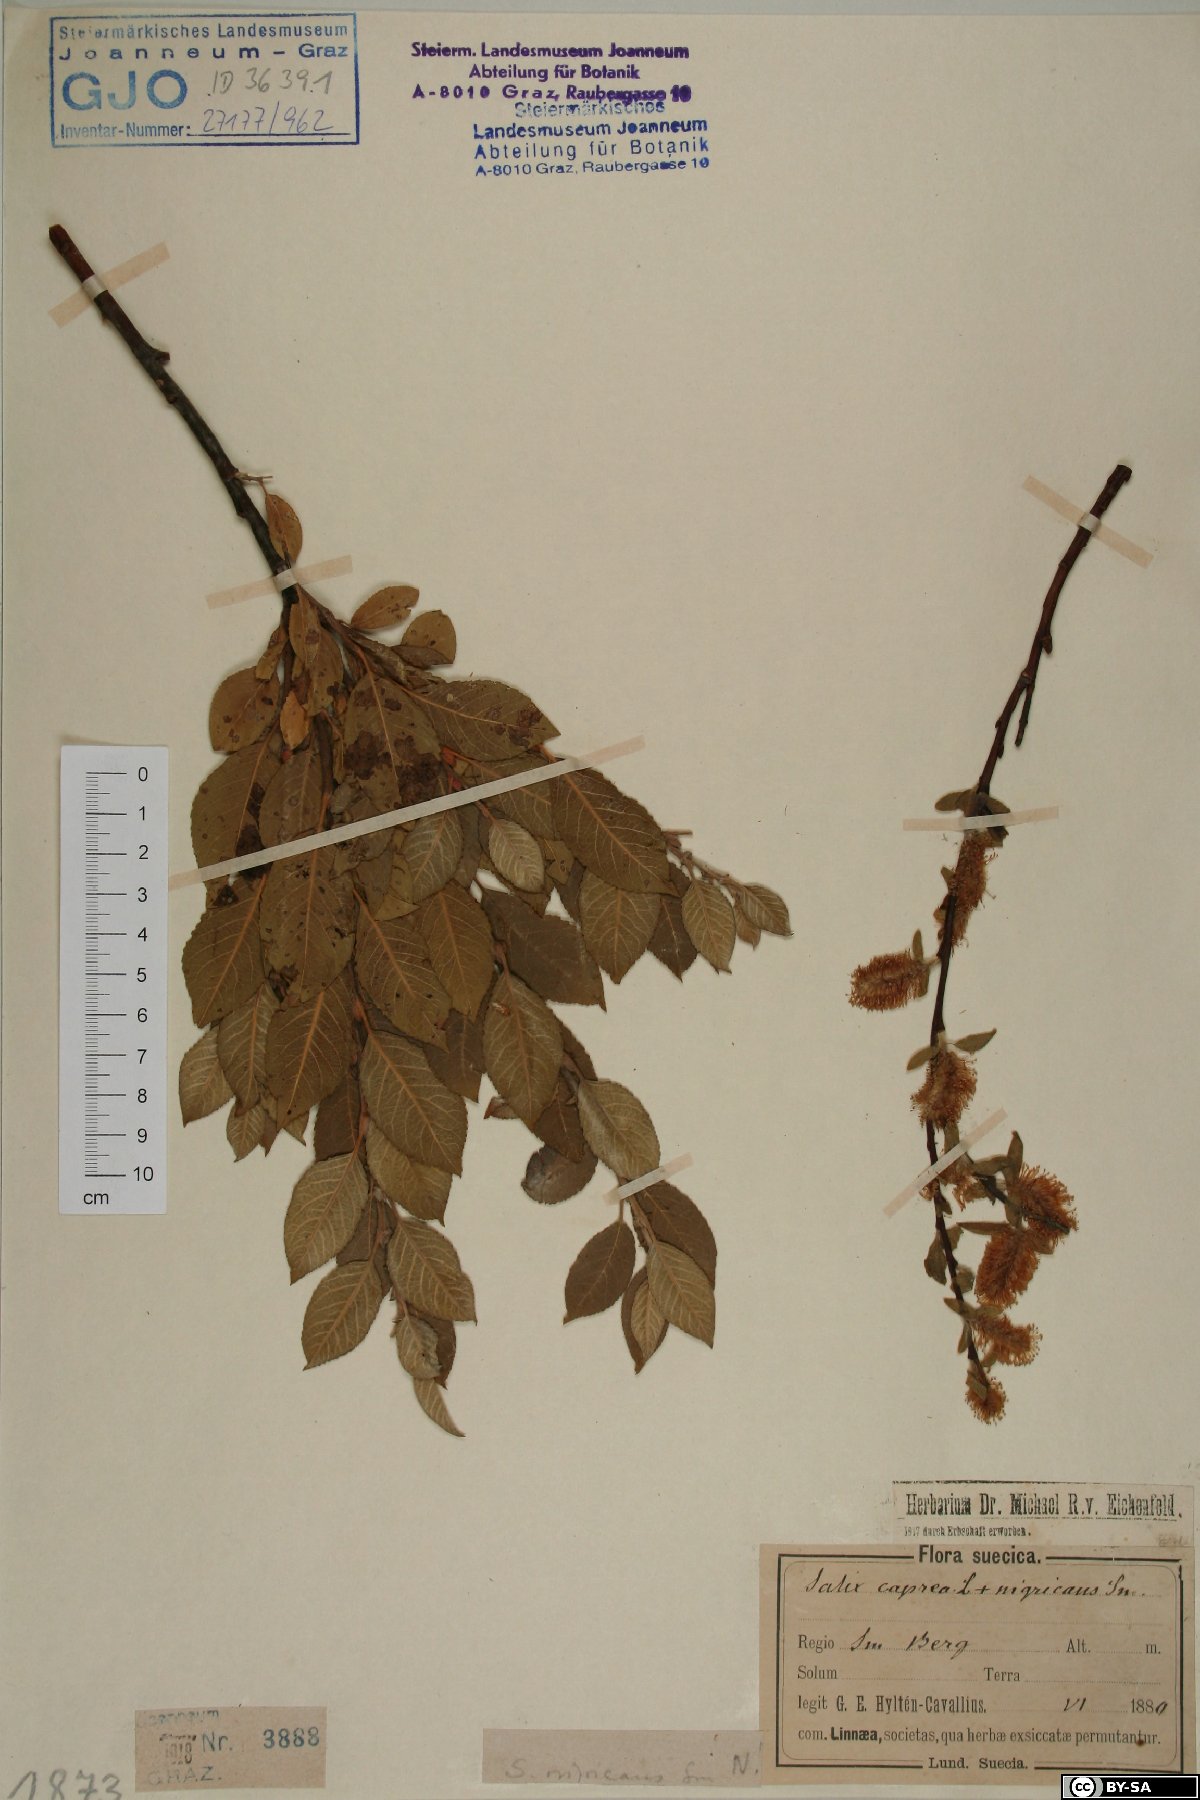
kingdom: Plantae
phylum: Tracheophyta
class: Magnoliopsida
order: Malpighiales
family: Salicaceae
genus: Salix
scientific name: Salix myrsinifolia
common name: Dark-leaved willow
